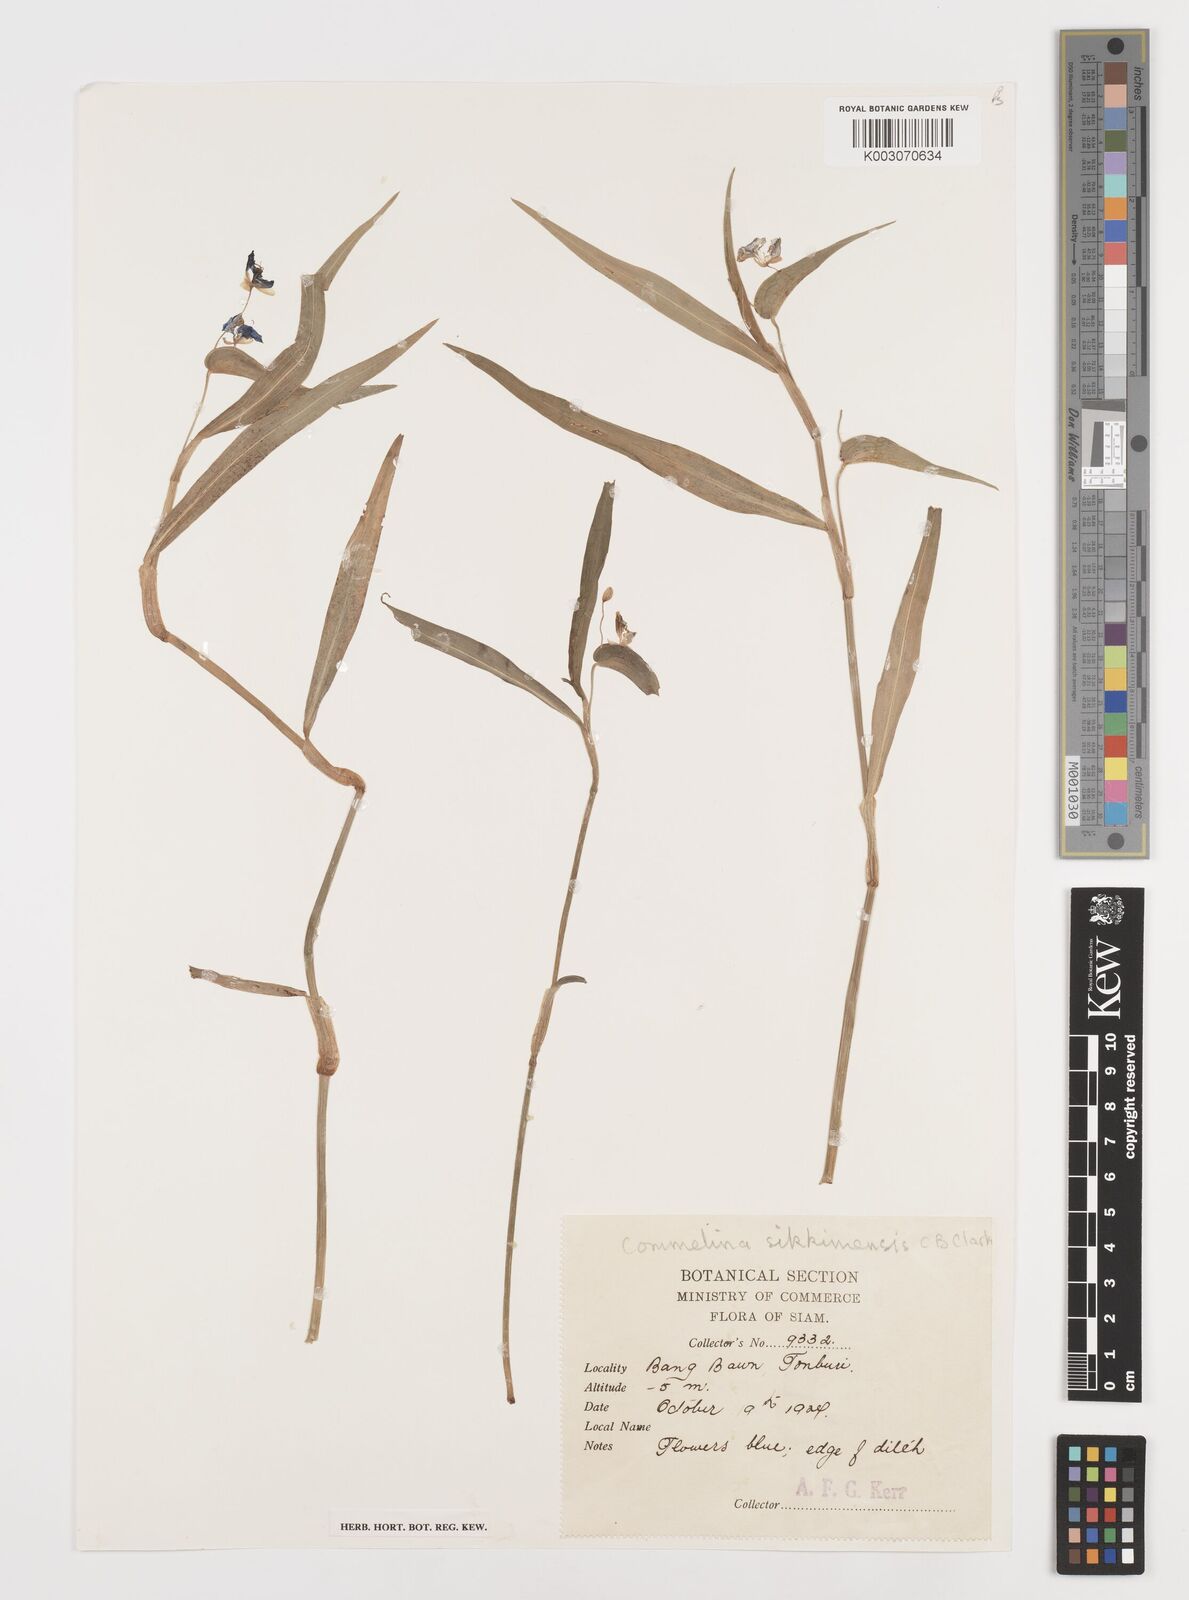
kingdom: Plantae
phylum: Tracheophyta
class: Liliopsida
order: Commelinales
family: Commelinaceae
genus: Commelina
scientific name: Commelina sikkimensis
